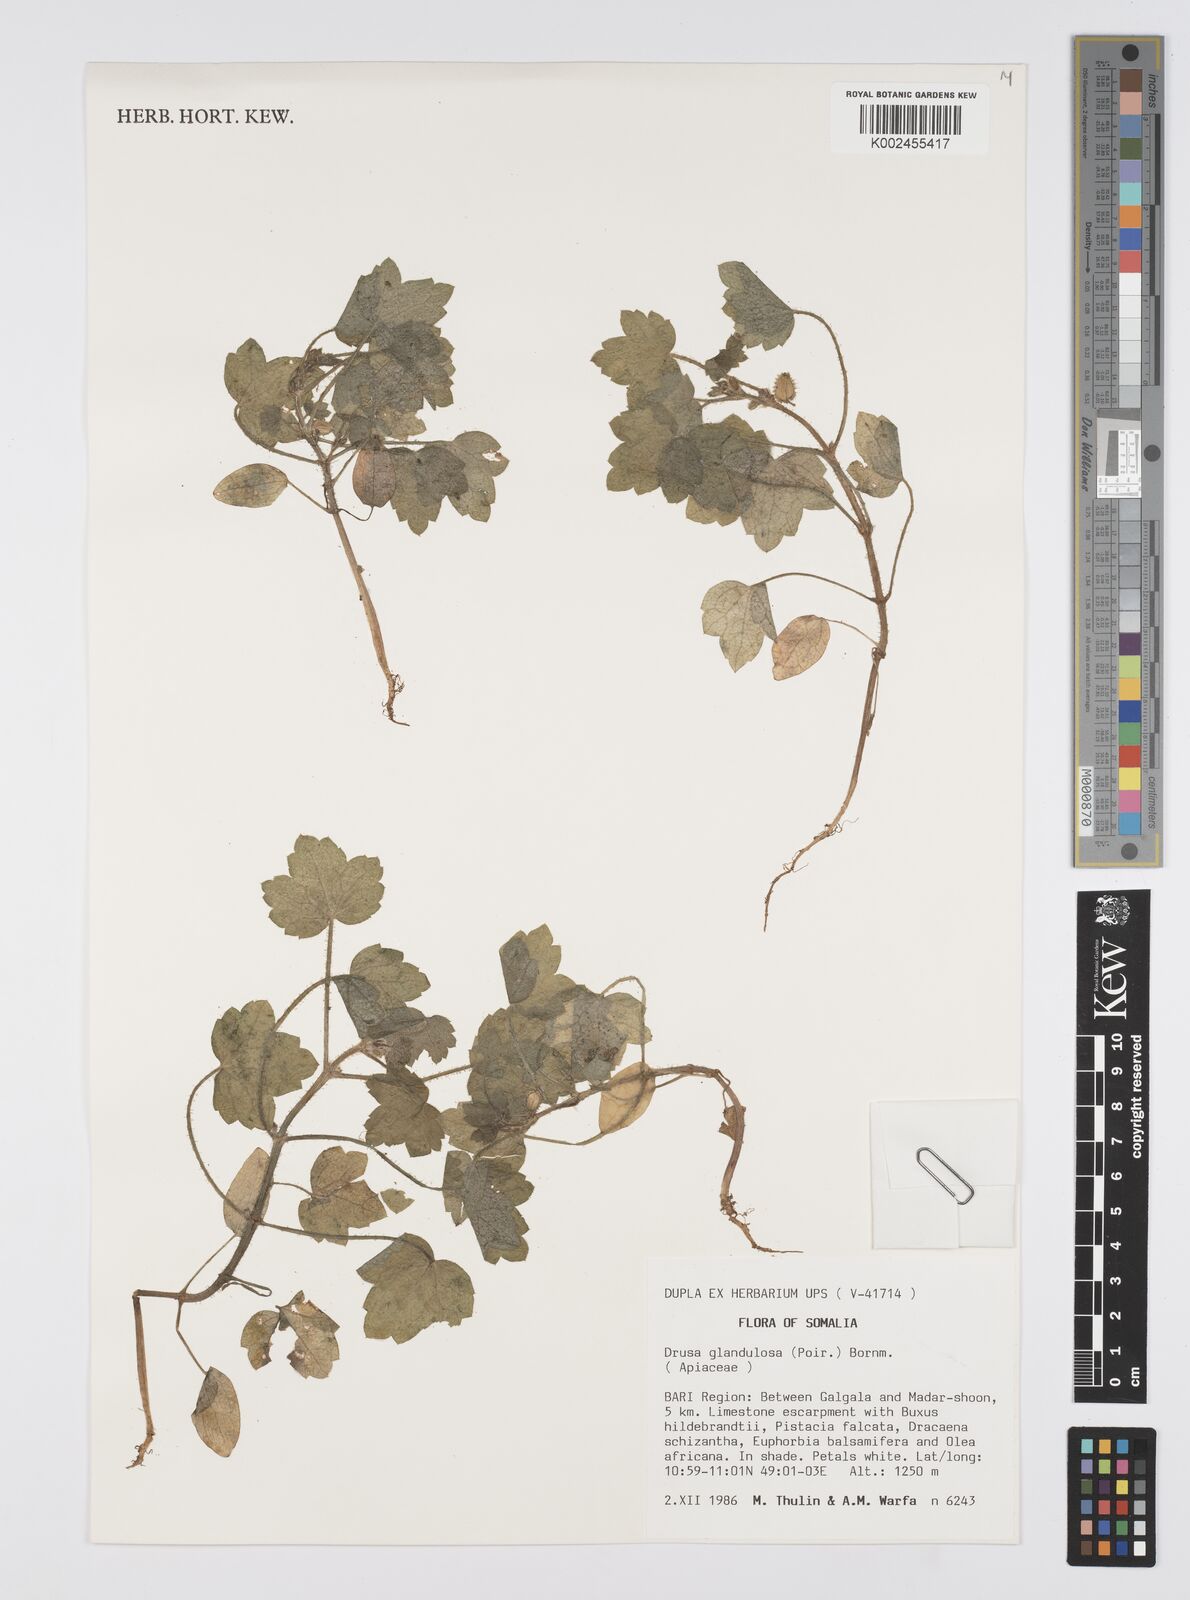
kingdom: Plantae
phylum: Tracheophyta
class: Magnoliopsida
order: Apiales
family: Apiaceae
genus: Drusa
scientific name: Drusa glandulosa
